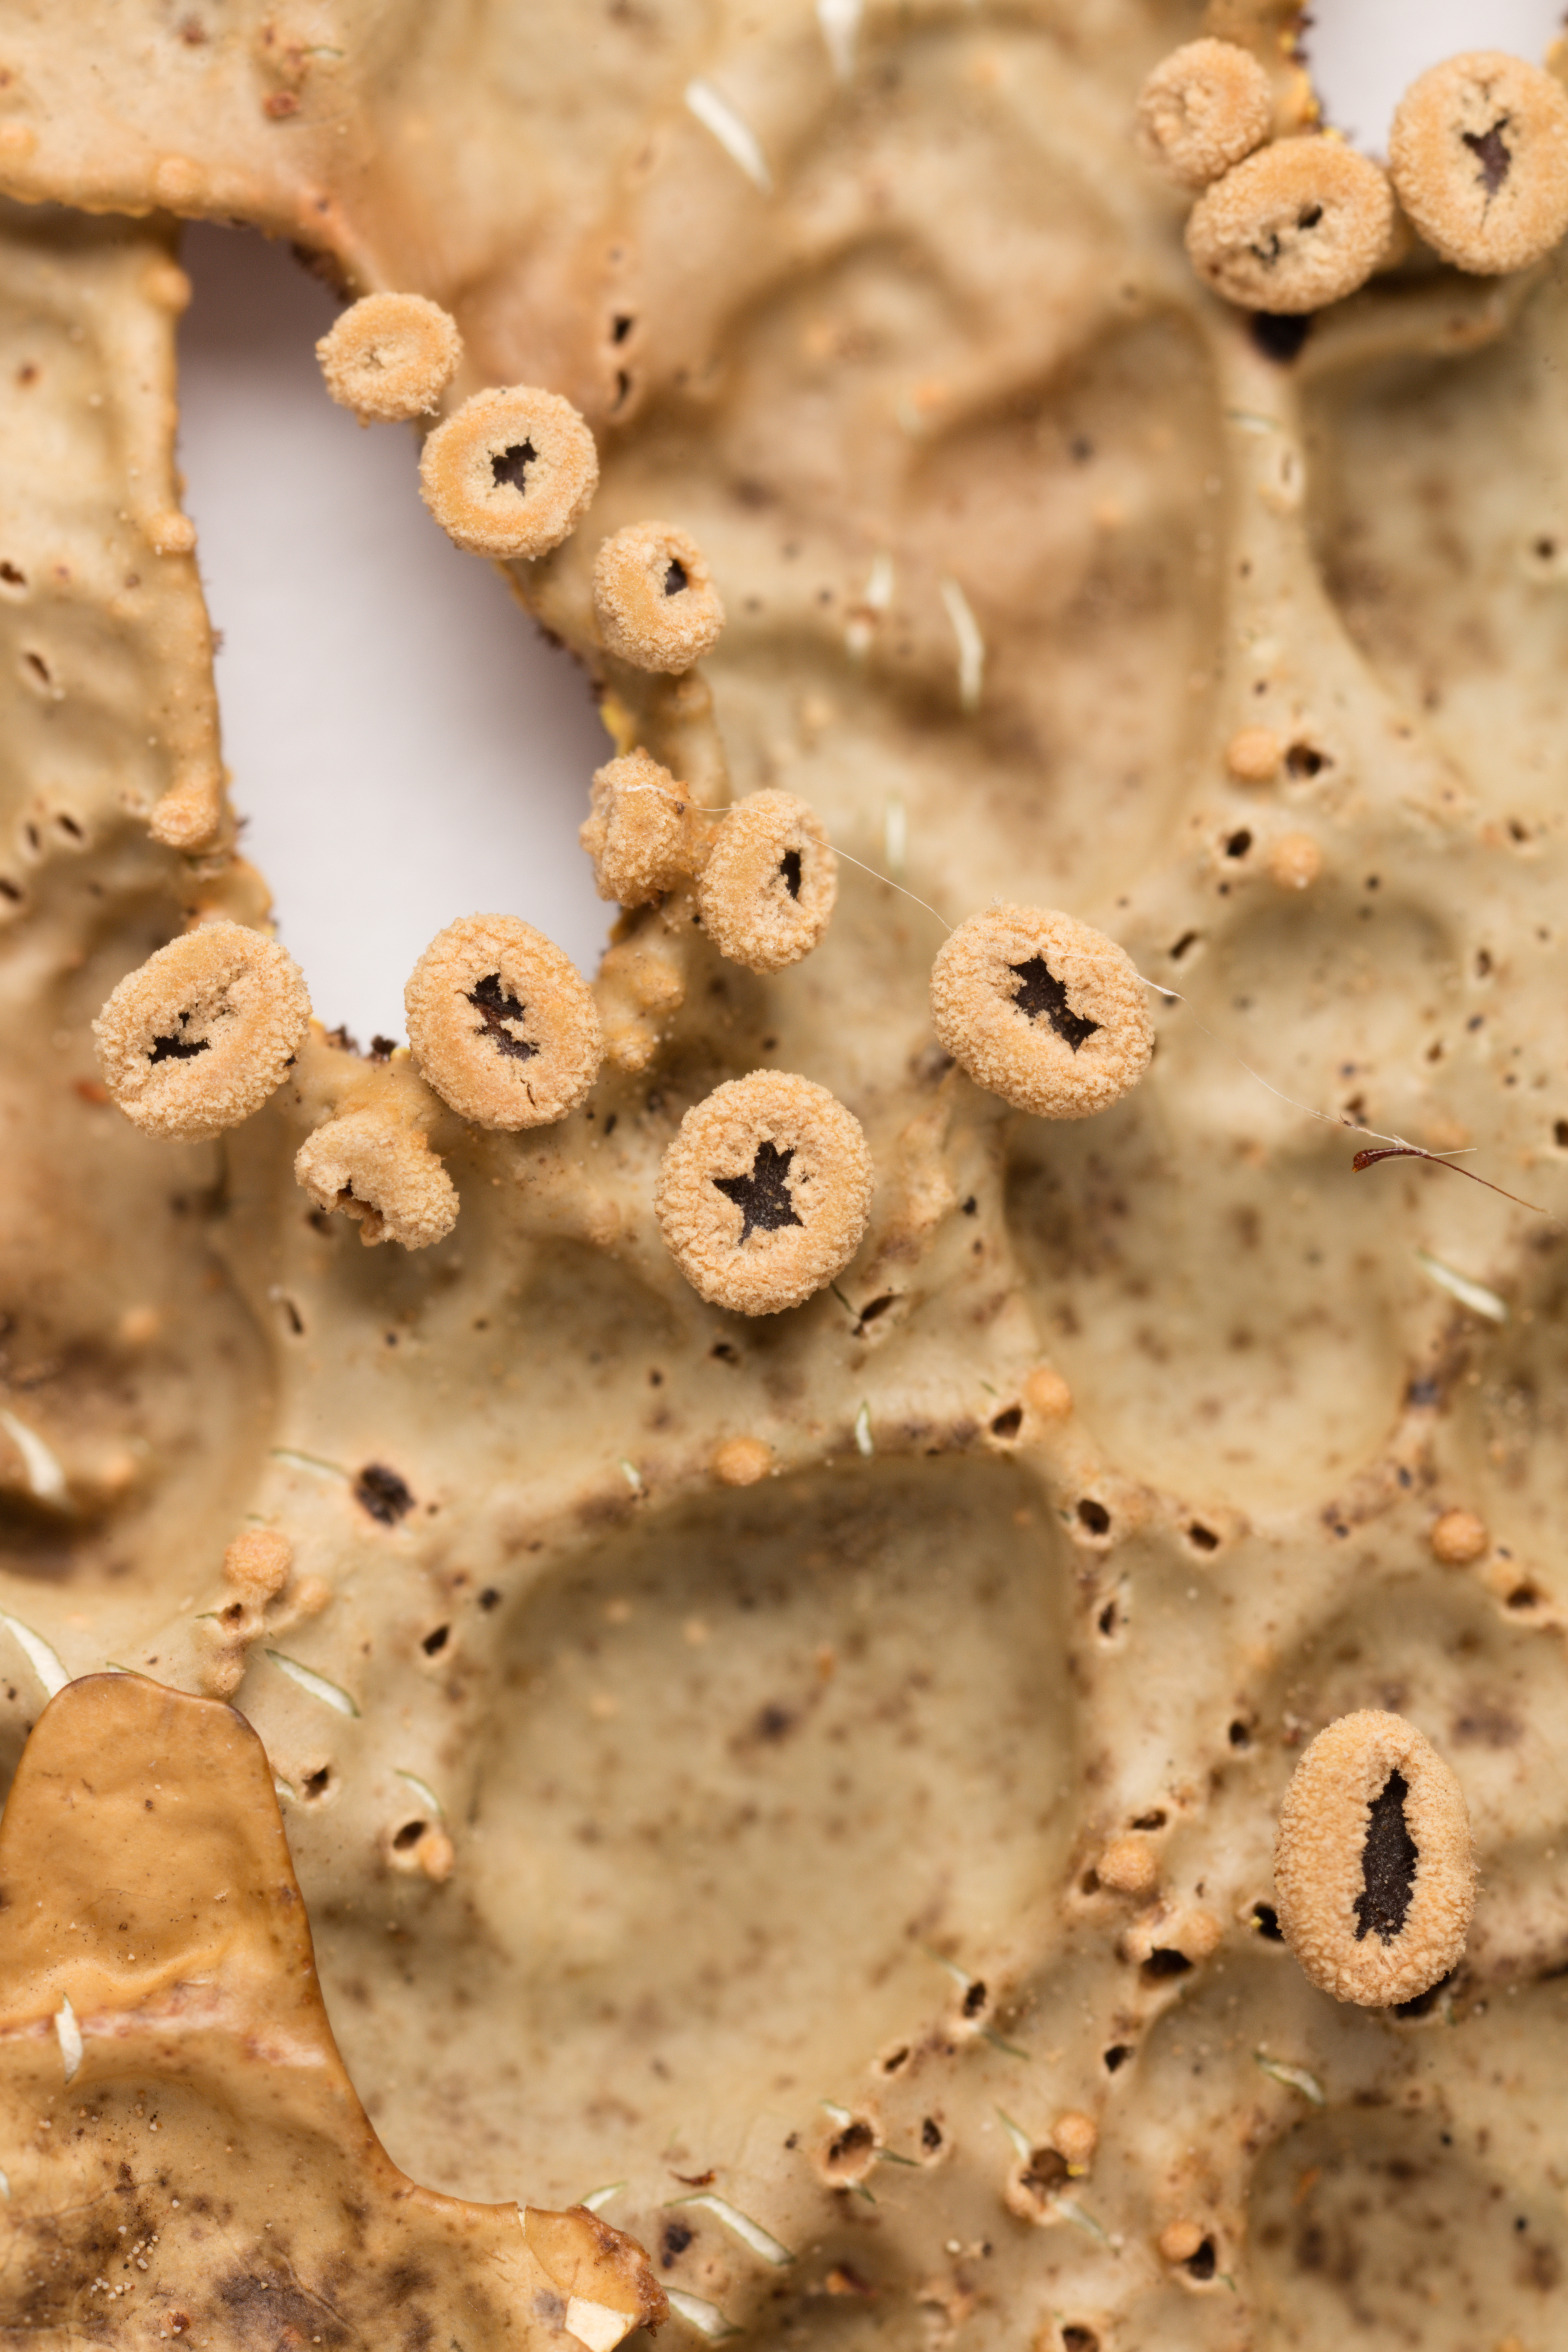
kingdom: Fungi
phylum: Ascomycota
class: Lecanoromycetes
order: Peltigerales
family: Lobariaceae
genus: Pseudocyphellaria
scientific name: Pseudocyphellaria carpoloma
